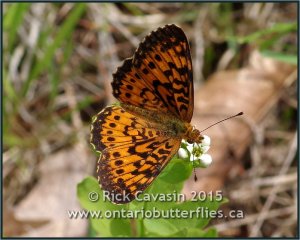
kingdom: Animalia
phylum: Arthropoda
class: Insecta
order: Lepidoptera
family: Nymphalidae
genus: Boloria
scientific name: Boloria selene
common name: Silver-bordered Fritillary
